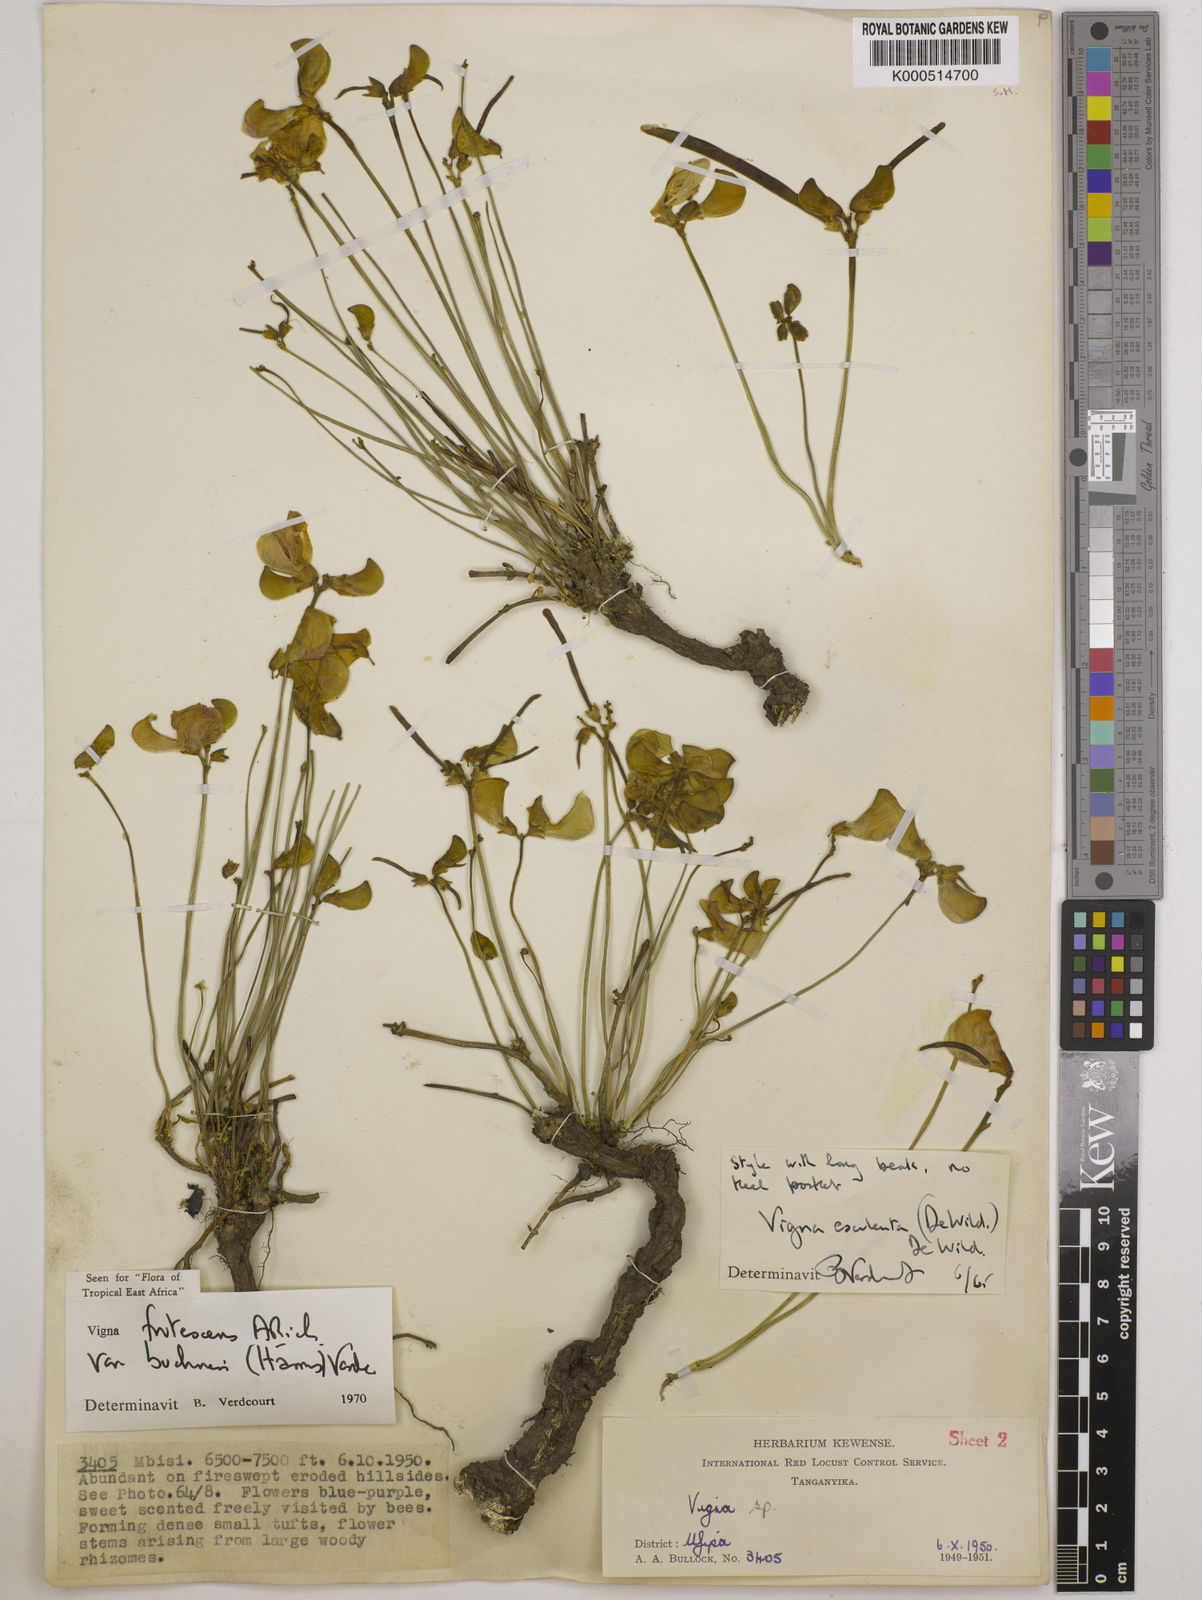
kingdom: Plantae
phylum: Tracheophyta
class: Magnoliopsida
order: Fabales
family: Fabaceae
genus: Vigna
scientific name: Vigna
